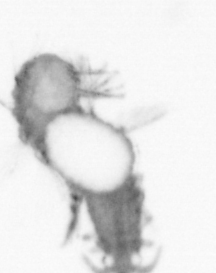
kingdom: Animalia
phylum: Annelida
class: Polychaeta
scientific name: Polychaeta
